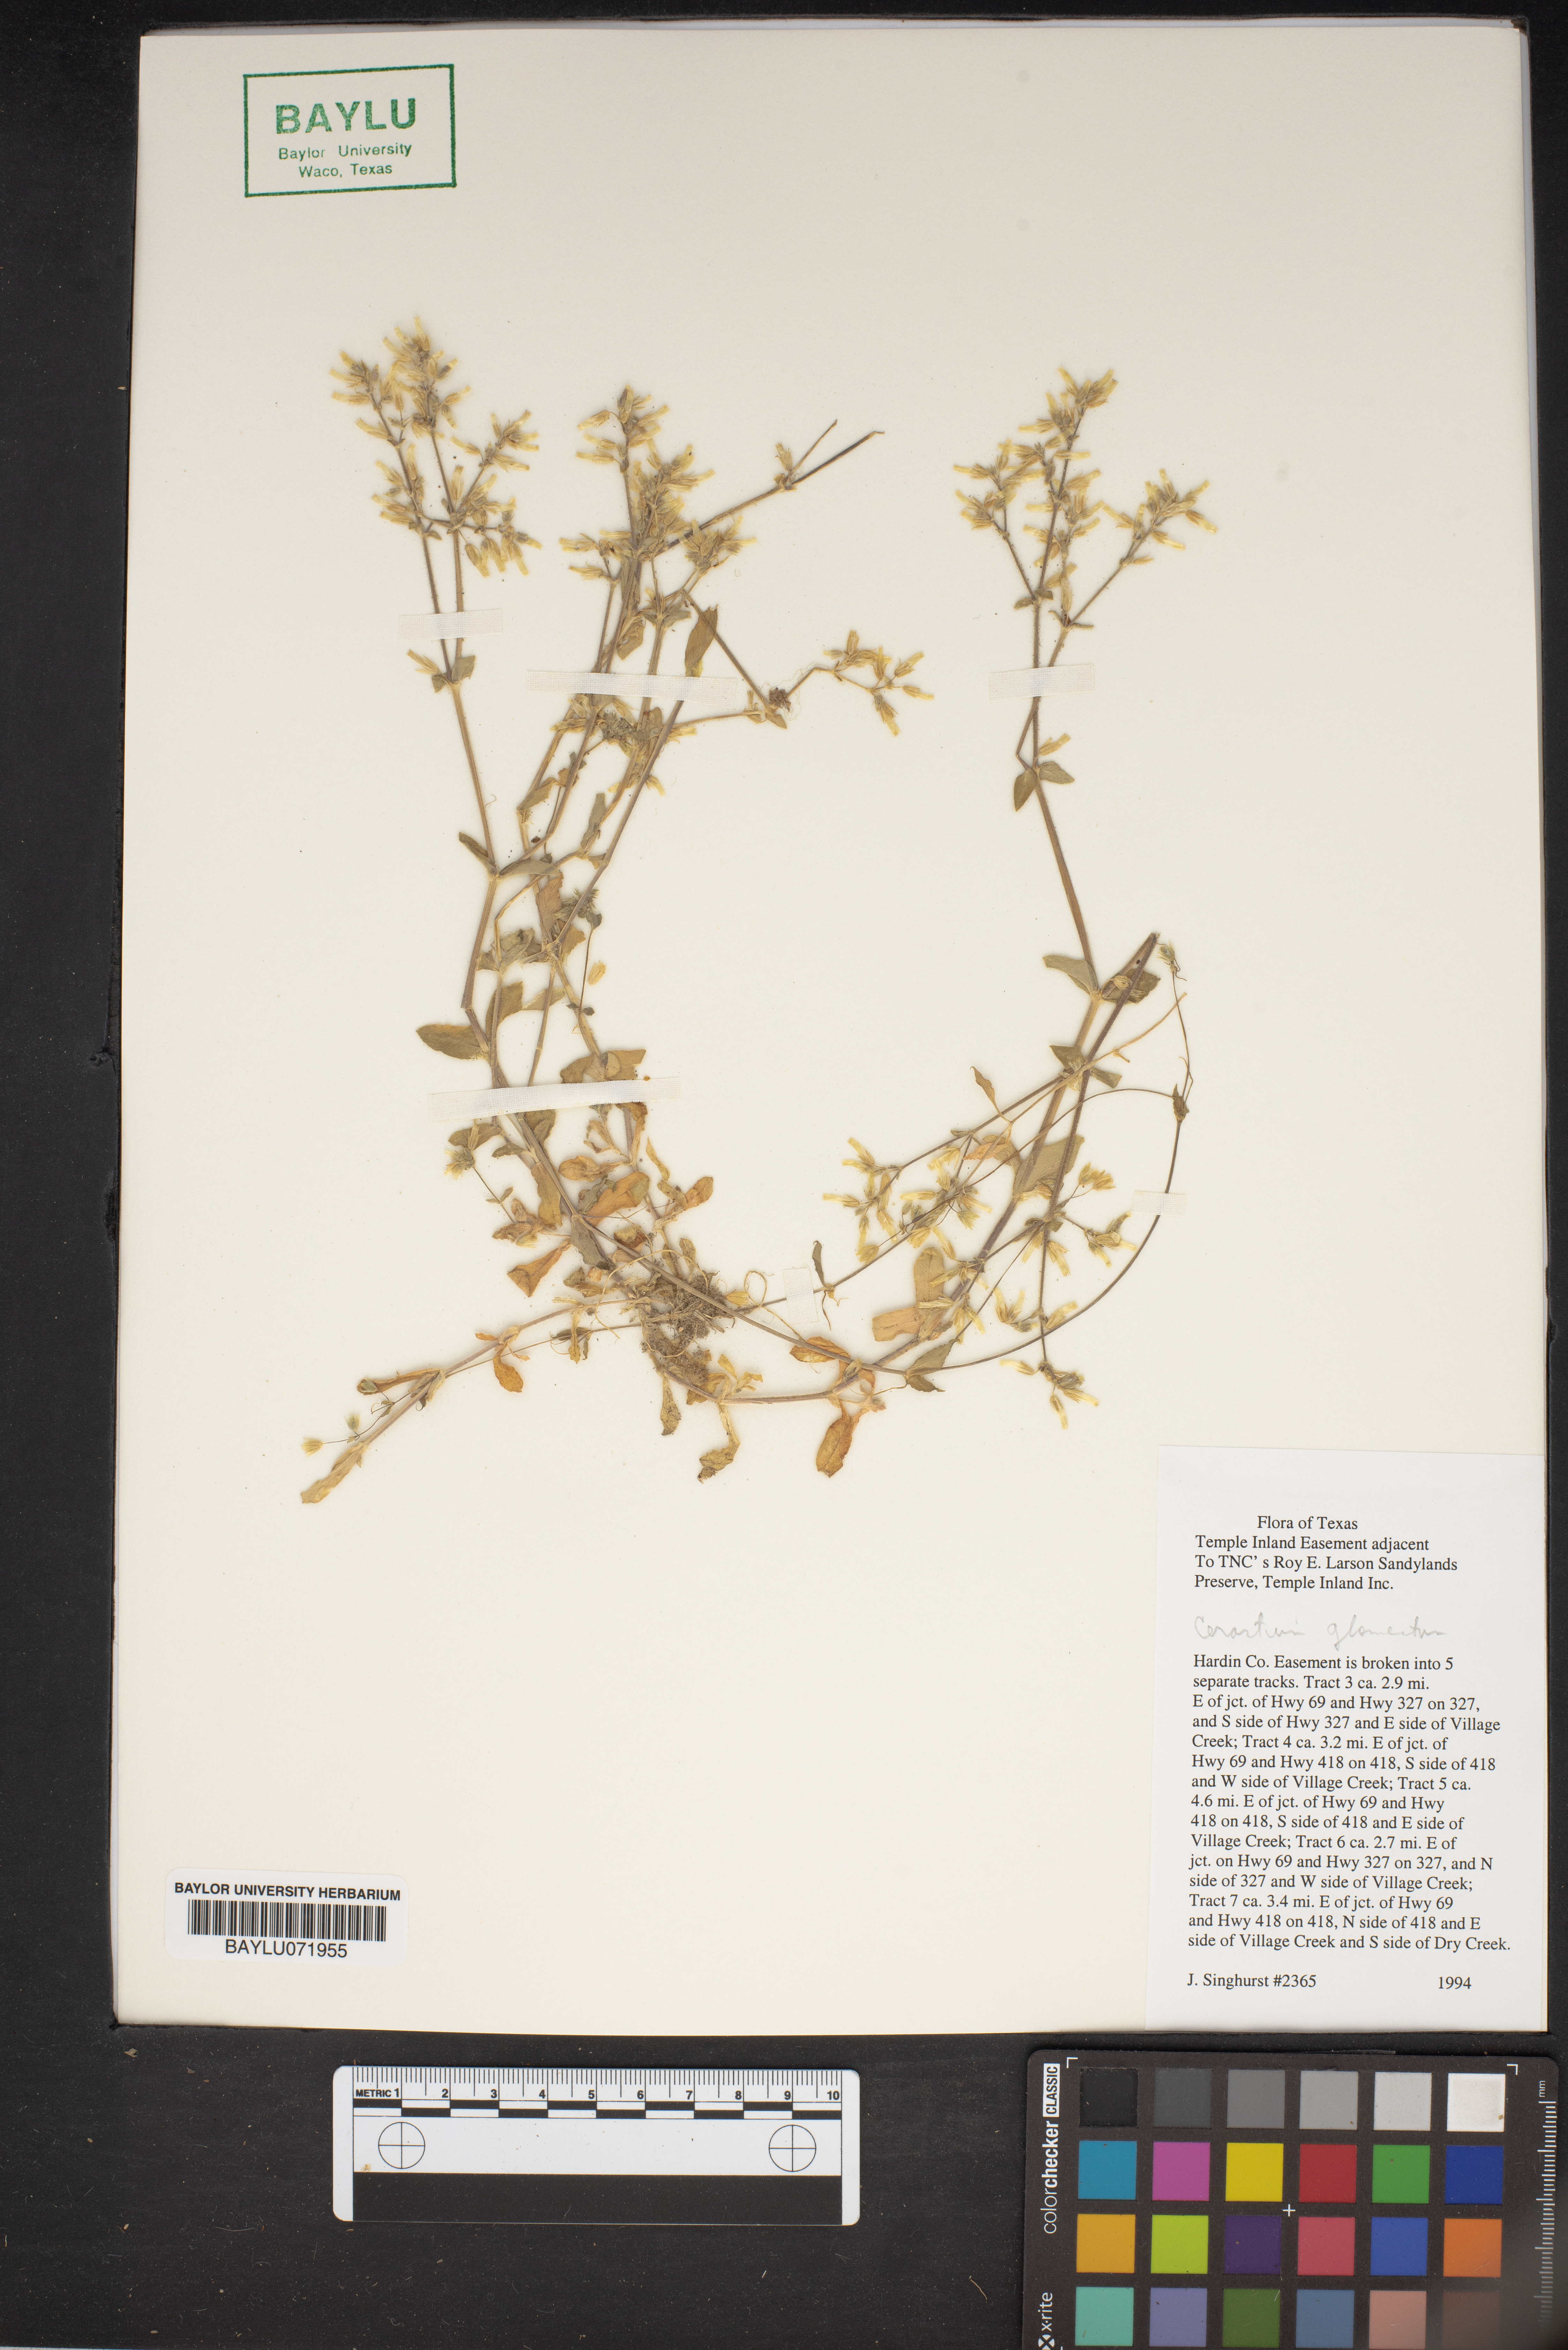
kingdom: Plantae
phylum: Tracheophyta
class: Magnoliopsida
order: Caryophyllales
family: Caryophyllaceae
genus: Cerastium
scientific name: Cerastium glomeratum
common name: Sticky chickweed
